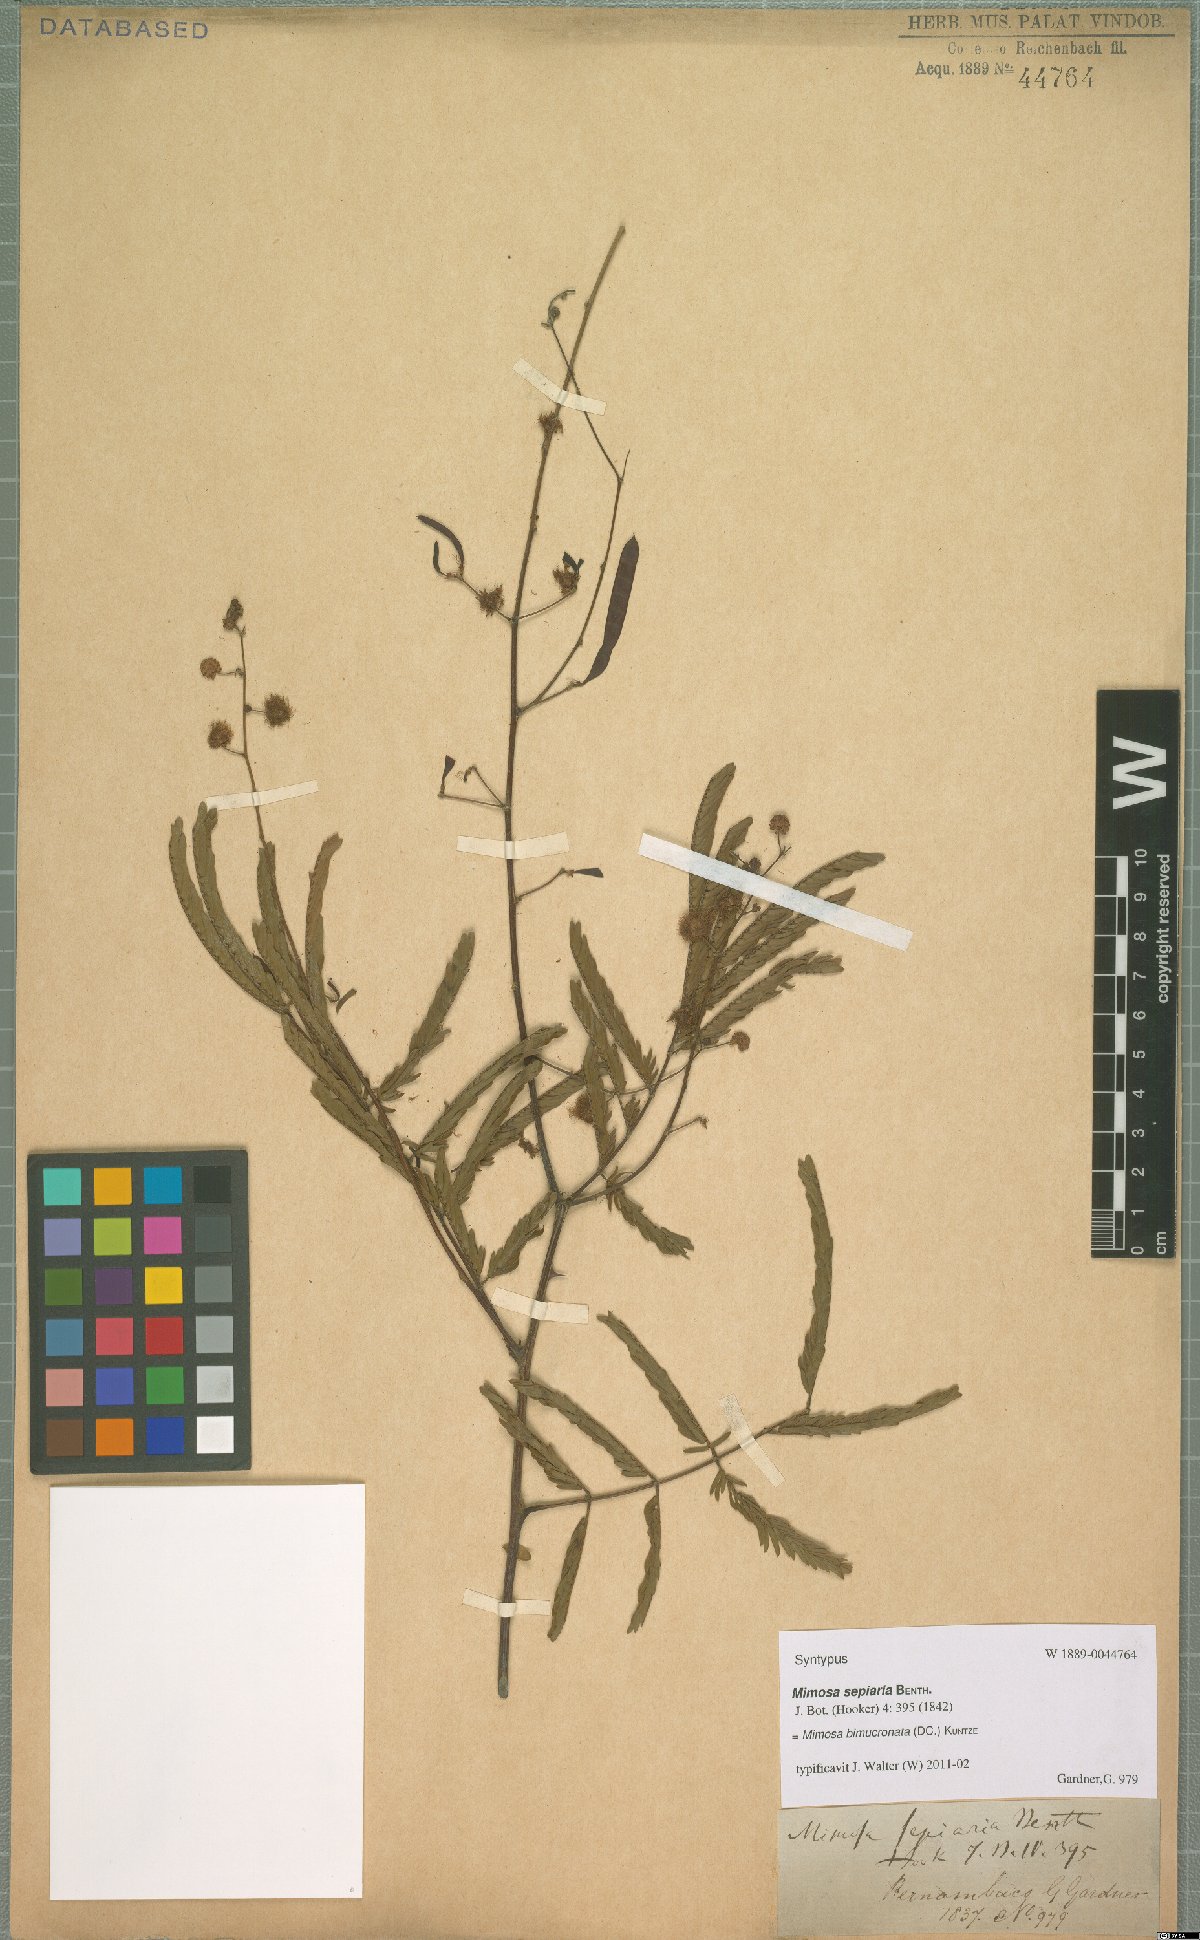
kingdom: Plantae
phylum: Tracheophyta
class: Magnoliopsida
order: Fabales
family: Fabaceae
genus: Mimosa
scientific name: Mimosa bimucronata
